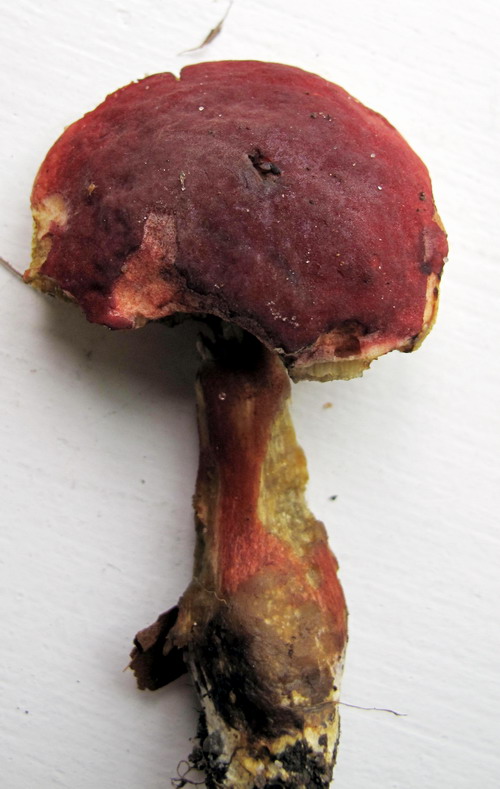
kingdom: Fungi
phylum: Basidiomycota
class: Agaricomycetes
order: Boletales
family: Boletaceae
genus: Hortiboletus
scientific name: Hortiboletus rubellus
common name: blodrød rørhat
